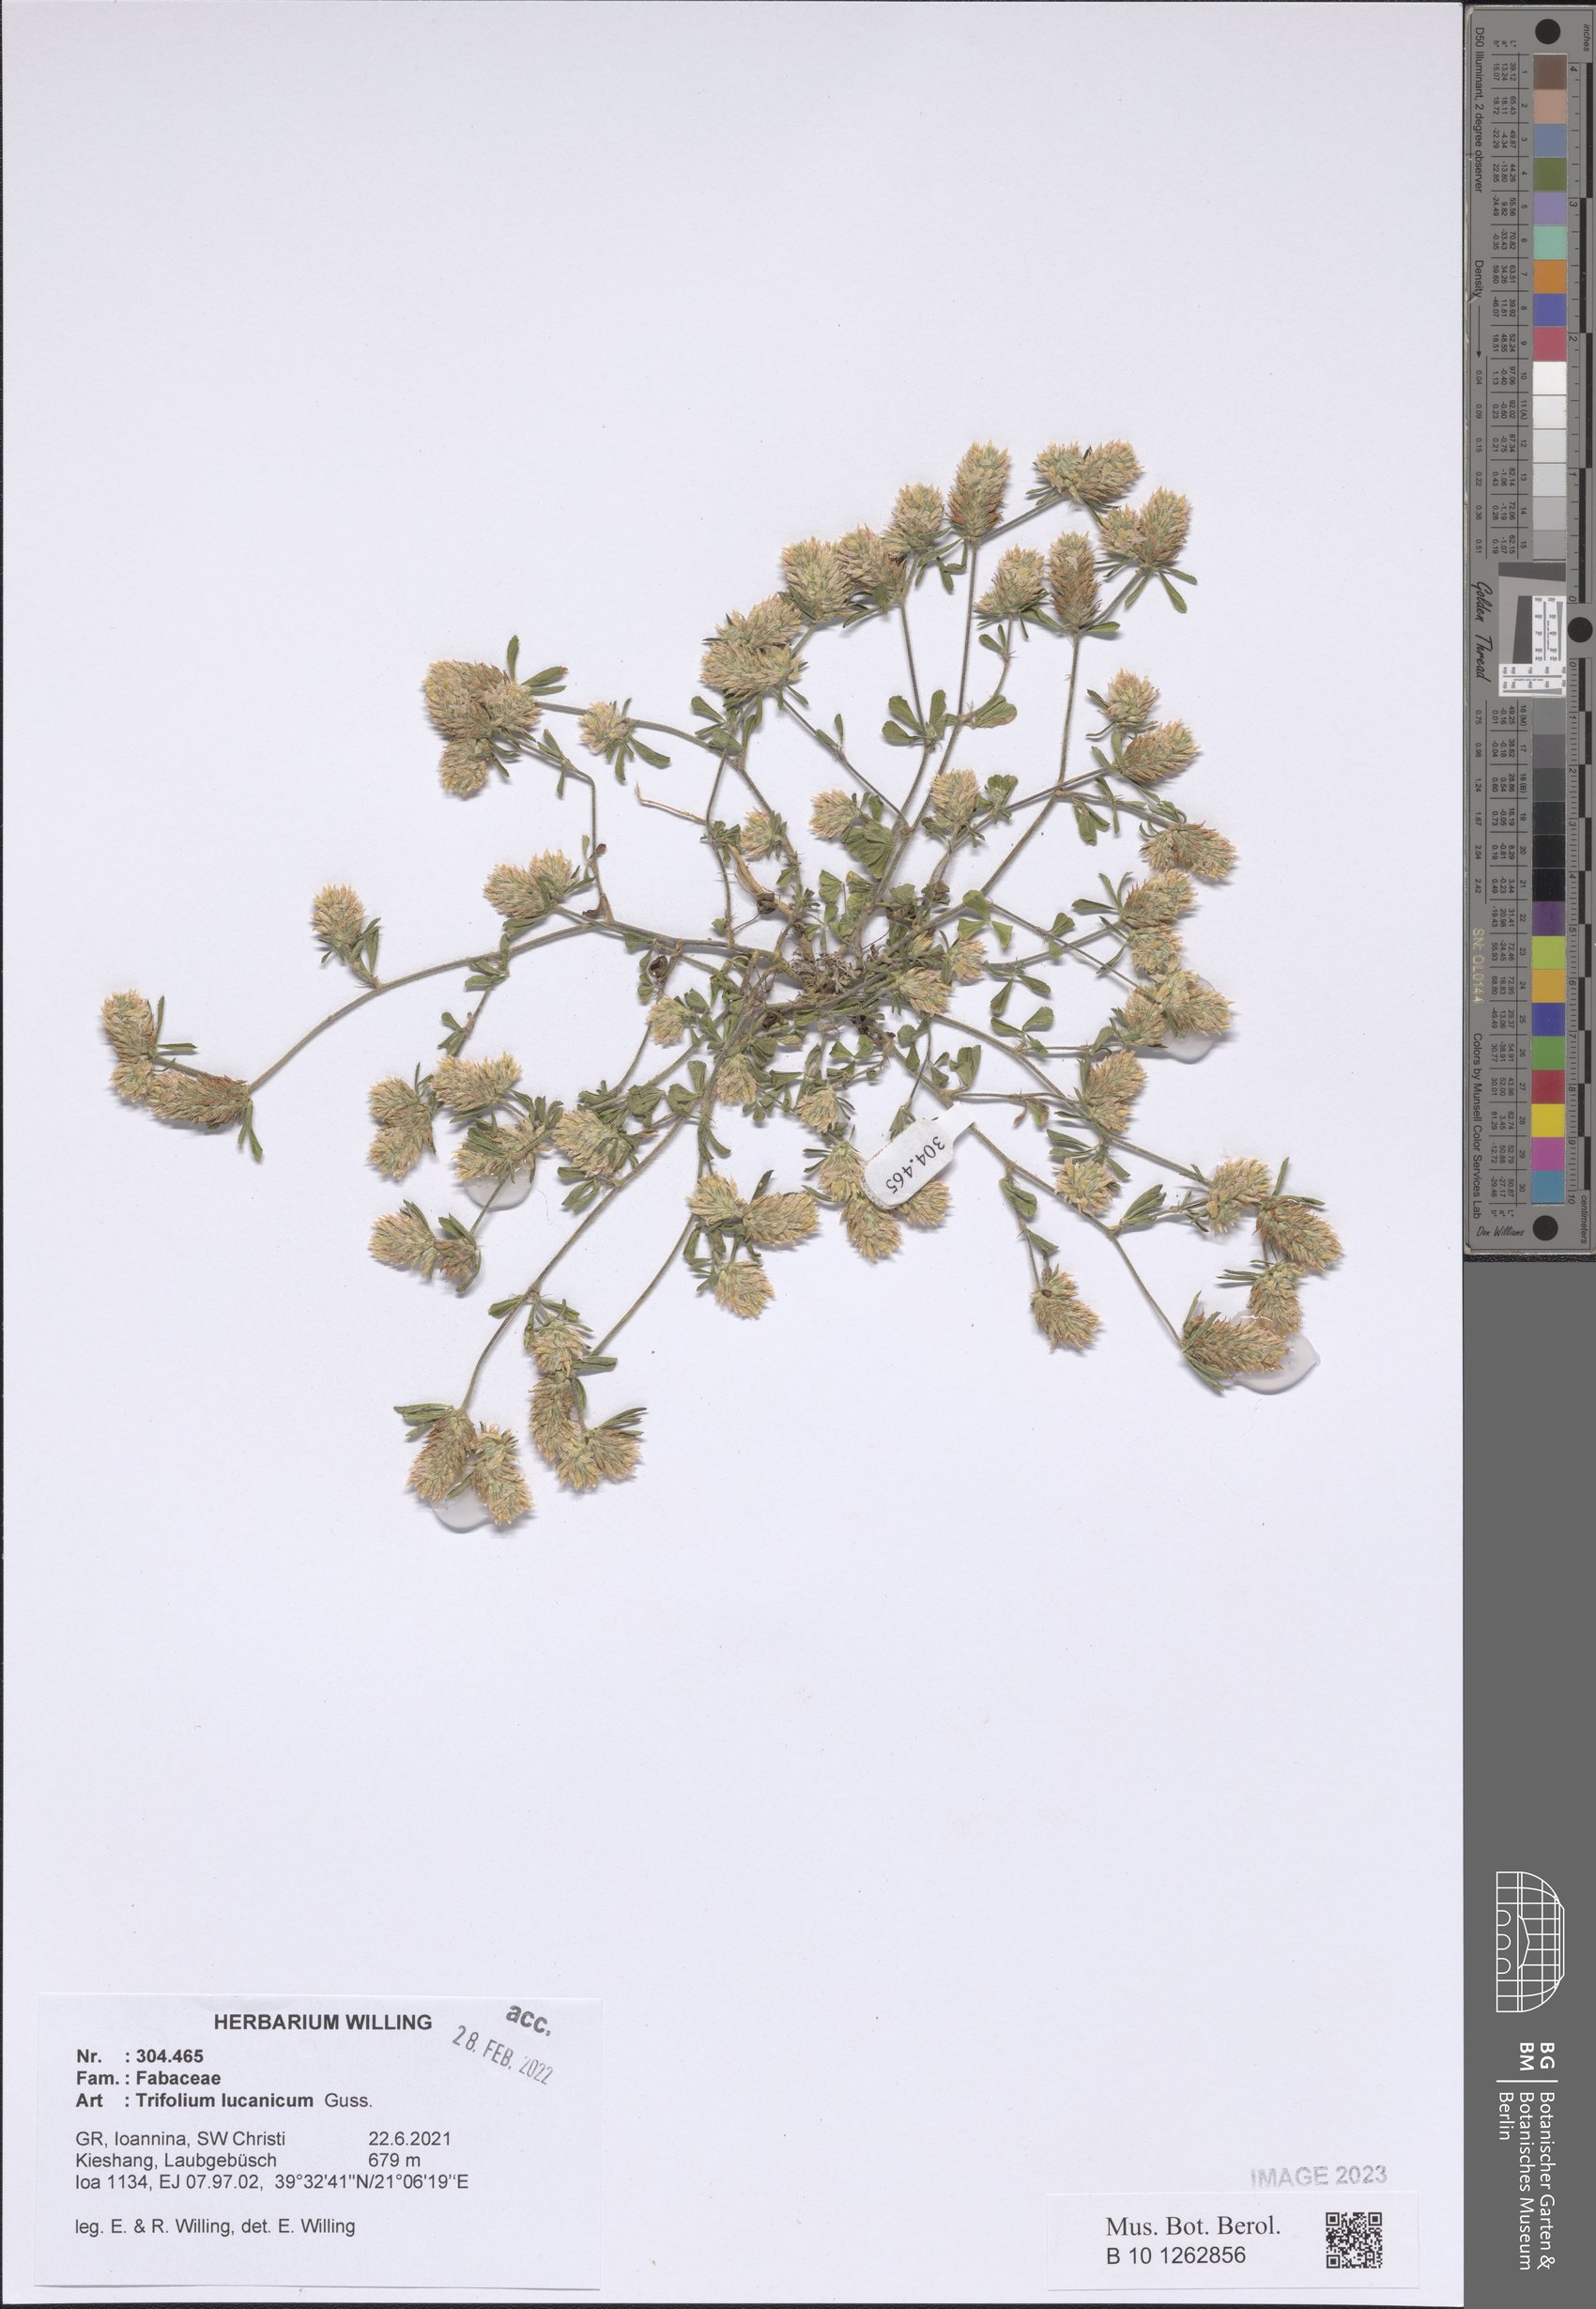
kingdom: Plantae
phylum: Tracheophyta
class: Magnoliopsida
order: Fabales
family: Fabaceae
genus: Trifolium
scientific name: Trifolium lucanicum
